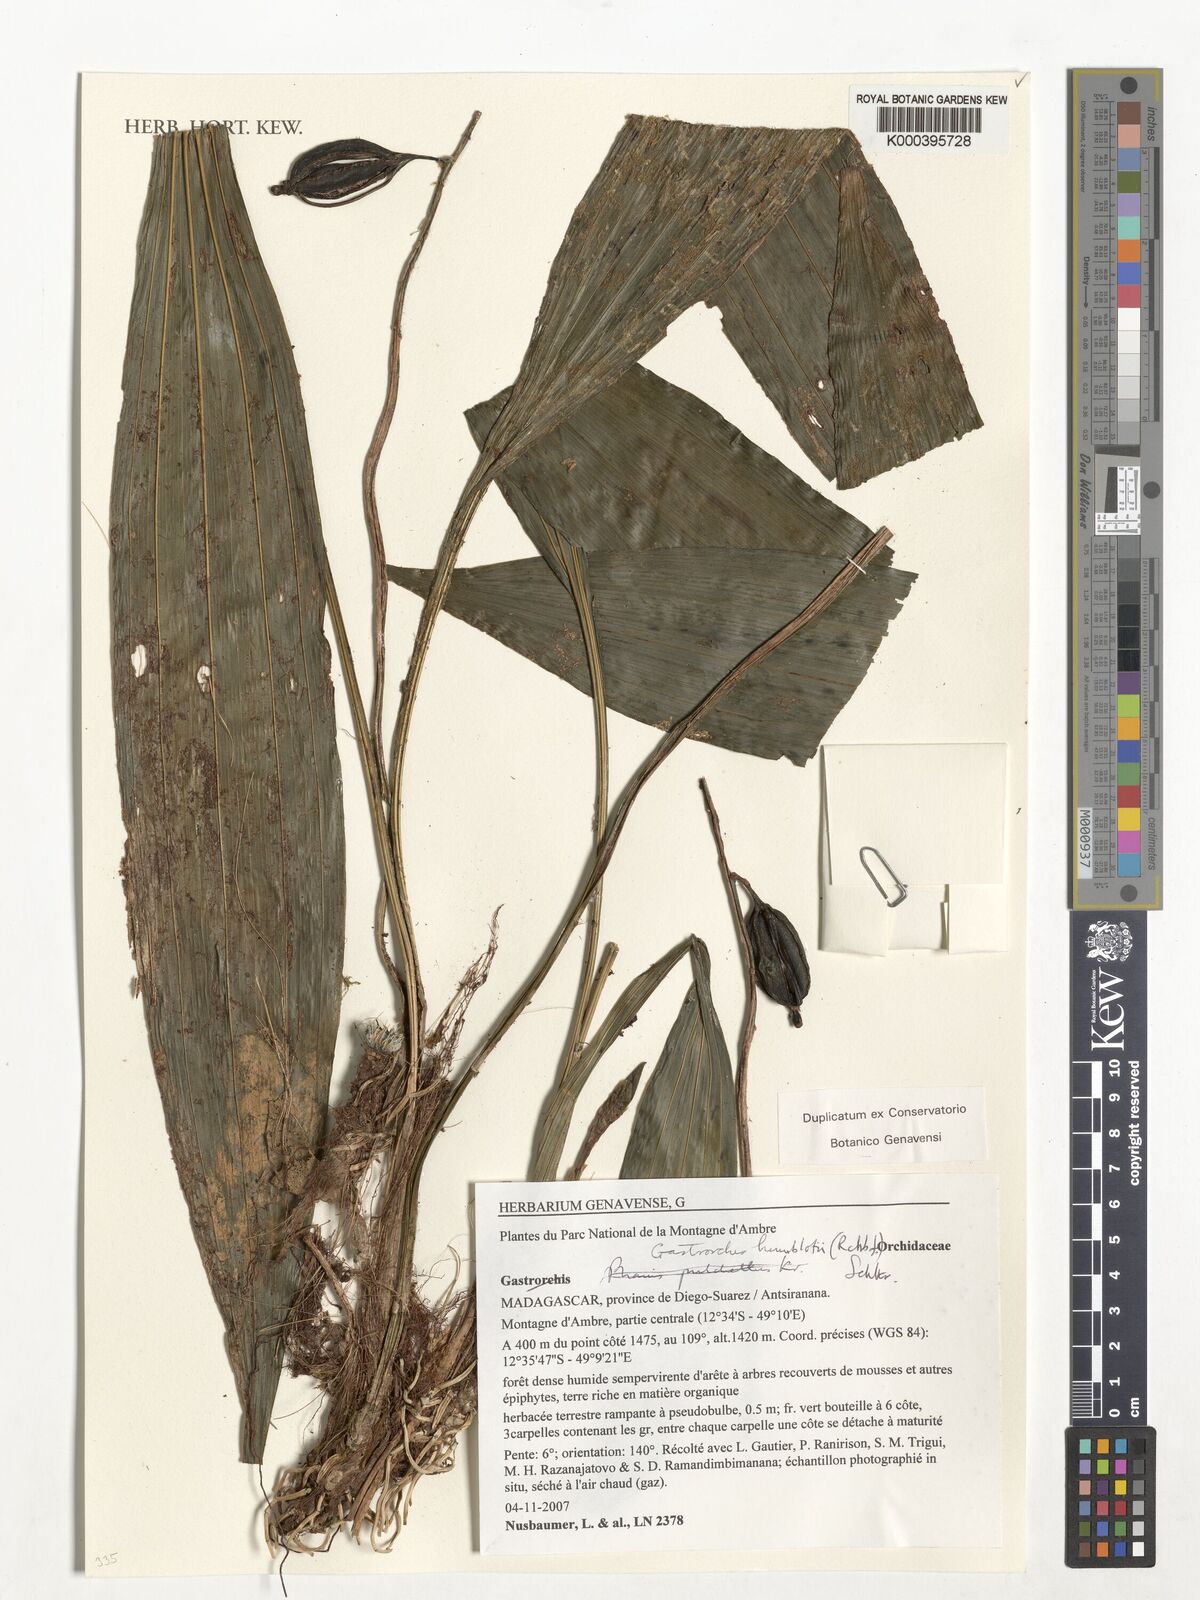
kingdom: Plantae
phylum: Tracheophyta
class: Liliopsida
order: Asparagales
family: Orchidaceae
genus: Calanthe
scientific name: Calanthe pulchella
